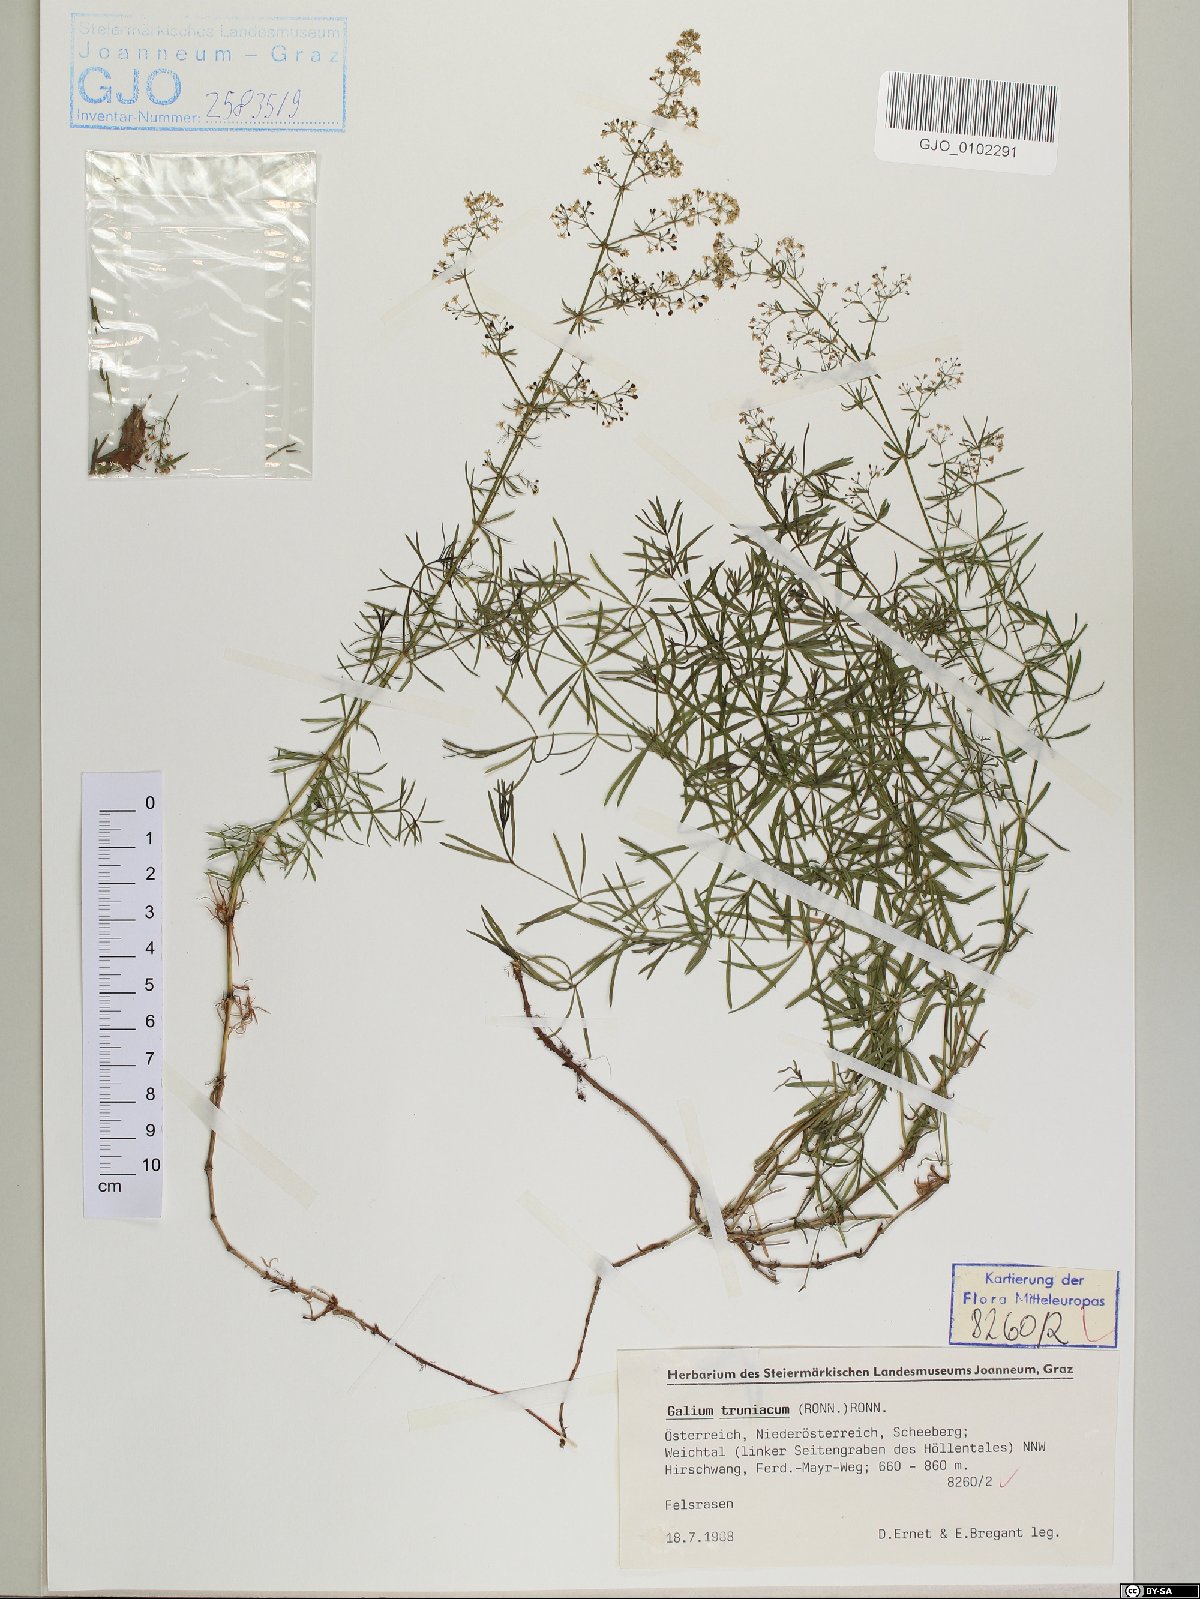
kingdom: Plantae
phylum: Tracheophyta
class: Magnoliopsida
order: Gentianales
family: Rubiaceae
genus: Galium
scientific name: Galium truniacum
